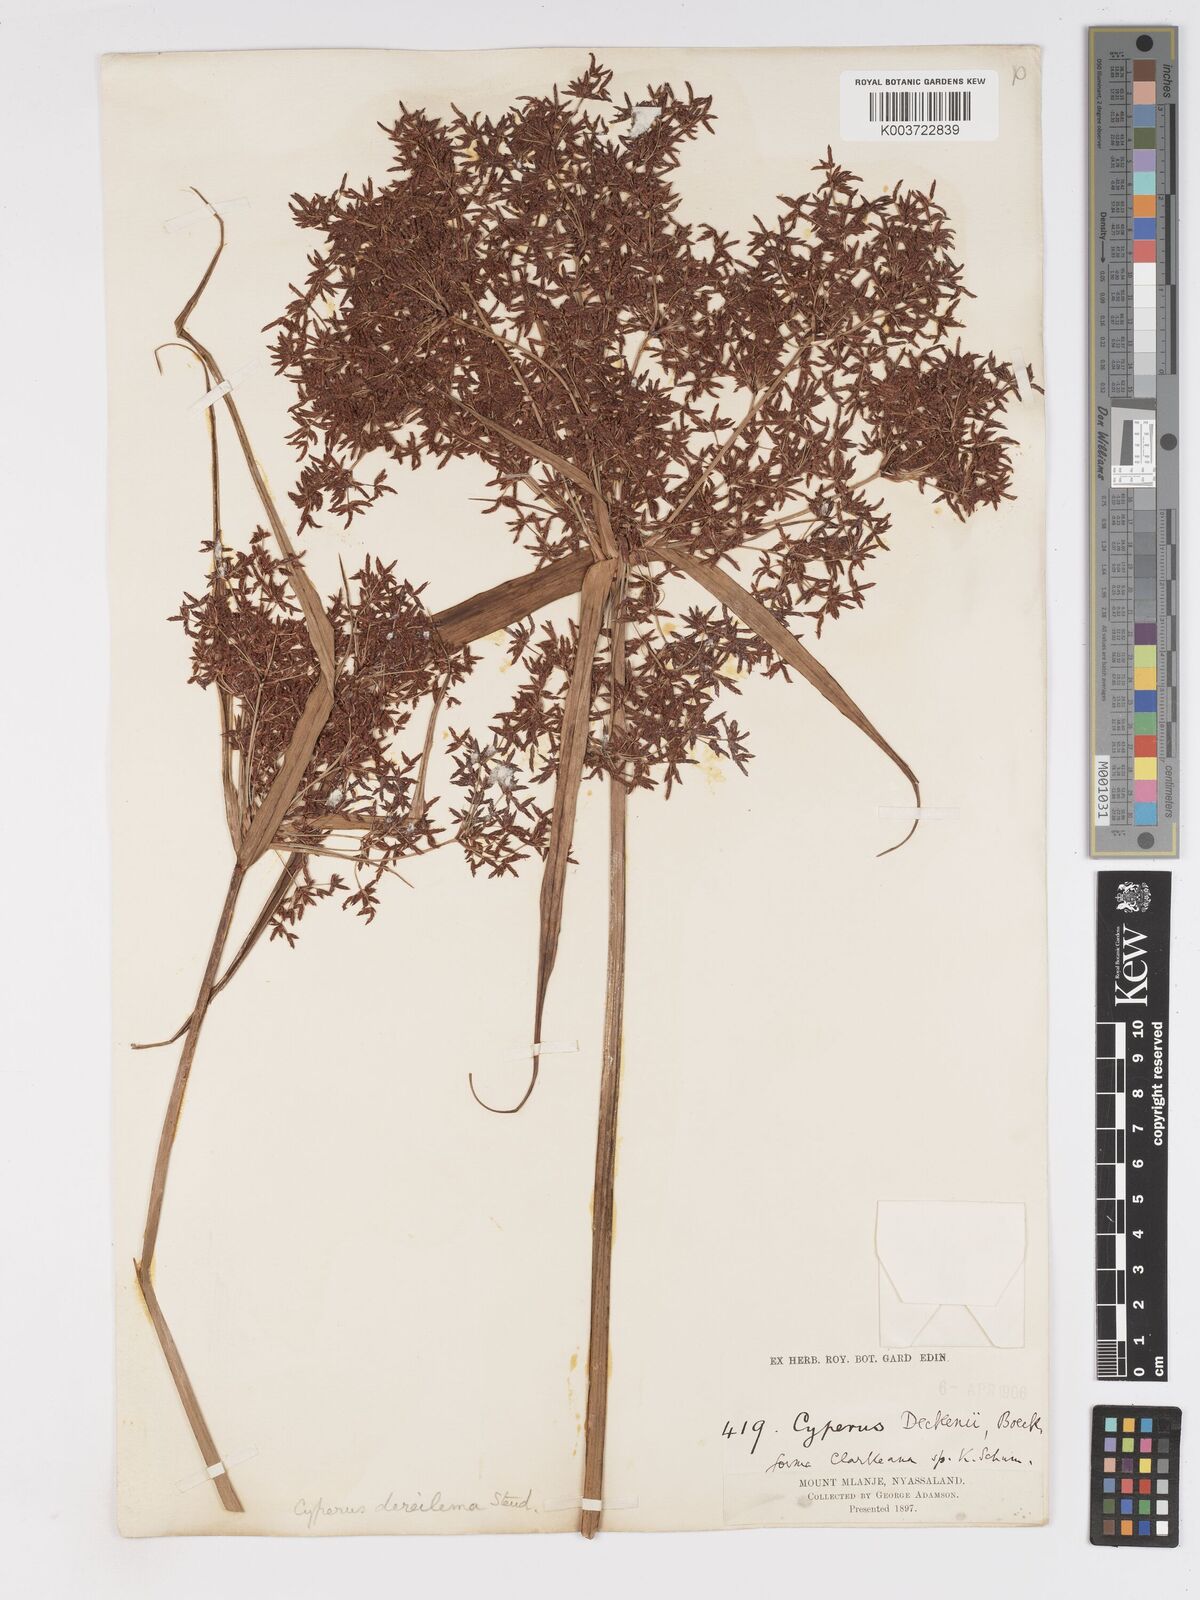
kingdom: Plantae
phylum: Tracheophyta
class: Liliopsida
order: Poales
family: Cyperaceae
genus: Cyperus
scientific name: Cyperus glaucophyllus
